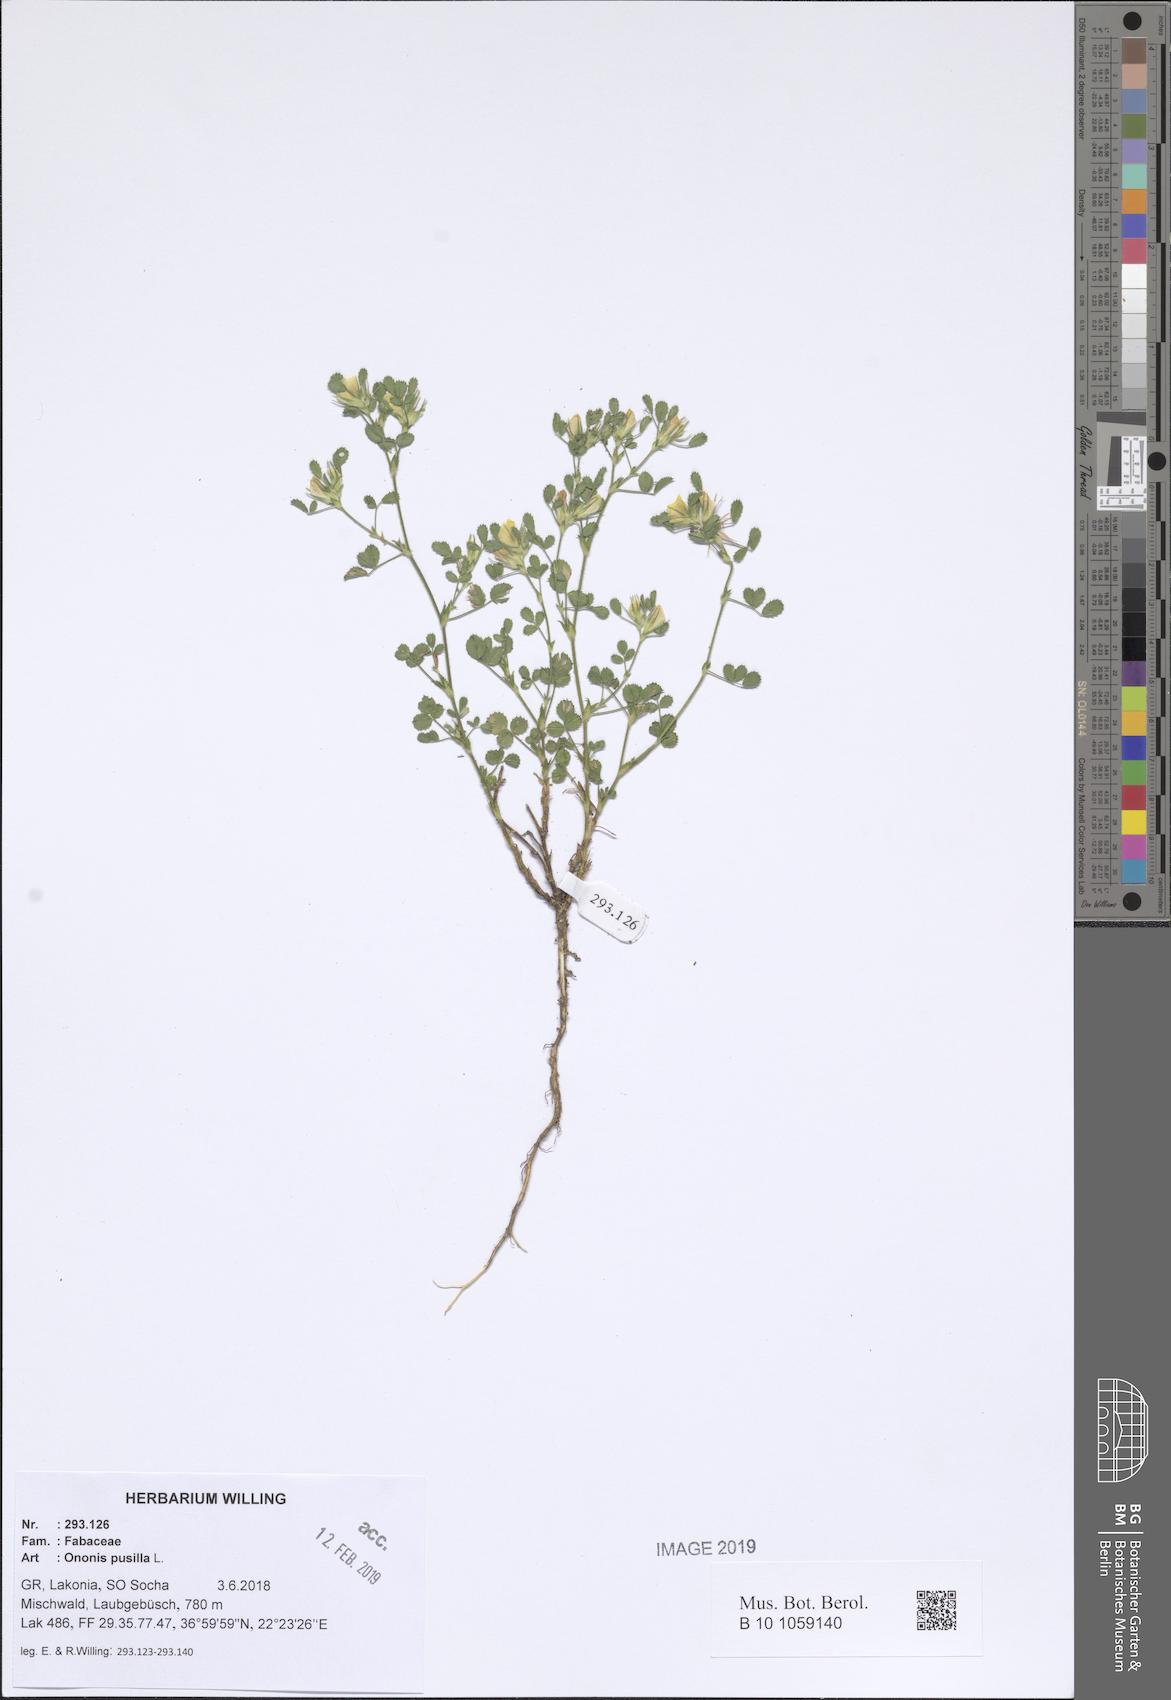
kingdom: Plantae
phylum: Tracheophyta
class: Magnoliopsida
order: Fabales
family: Fabaceae
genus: Ononis
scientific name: Ononis pusilla
